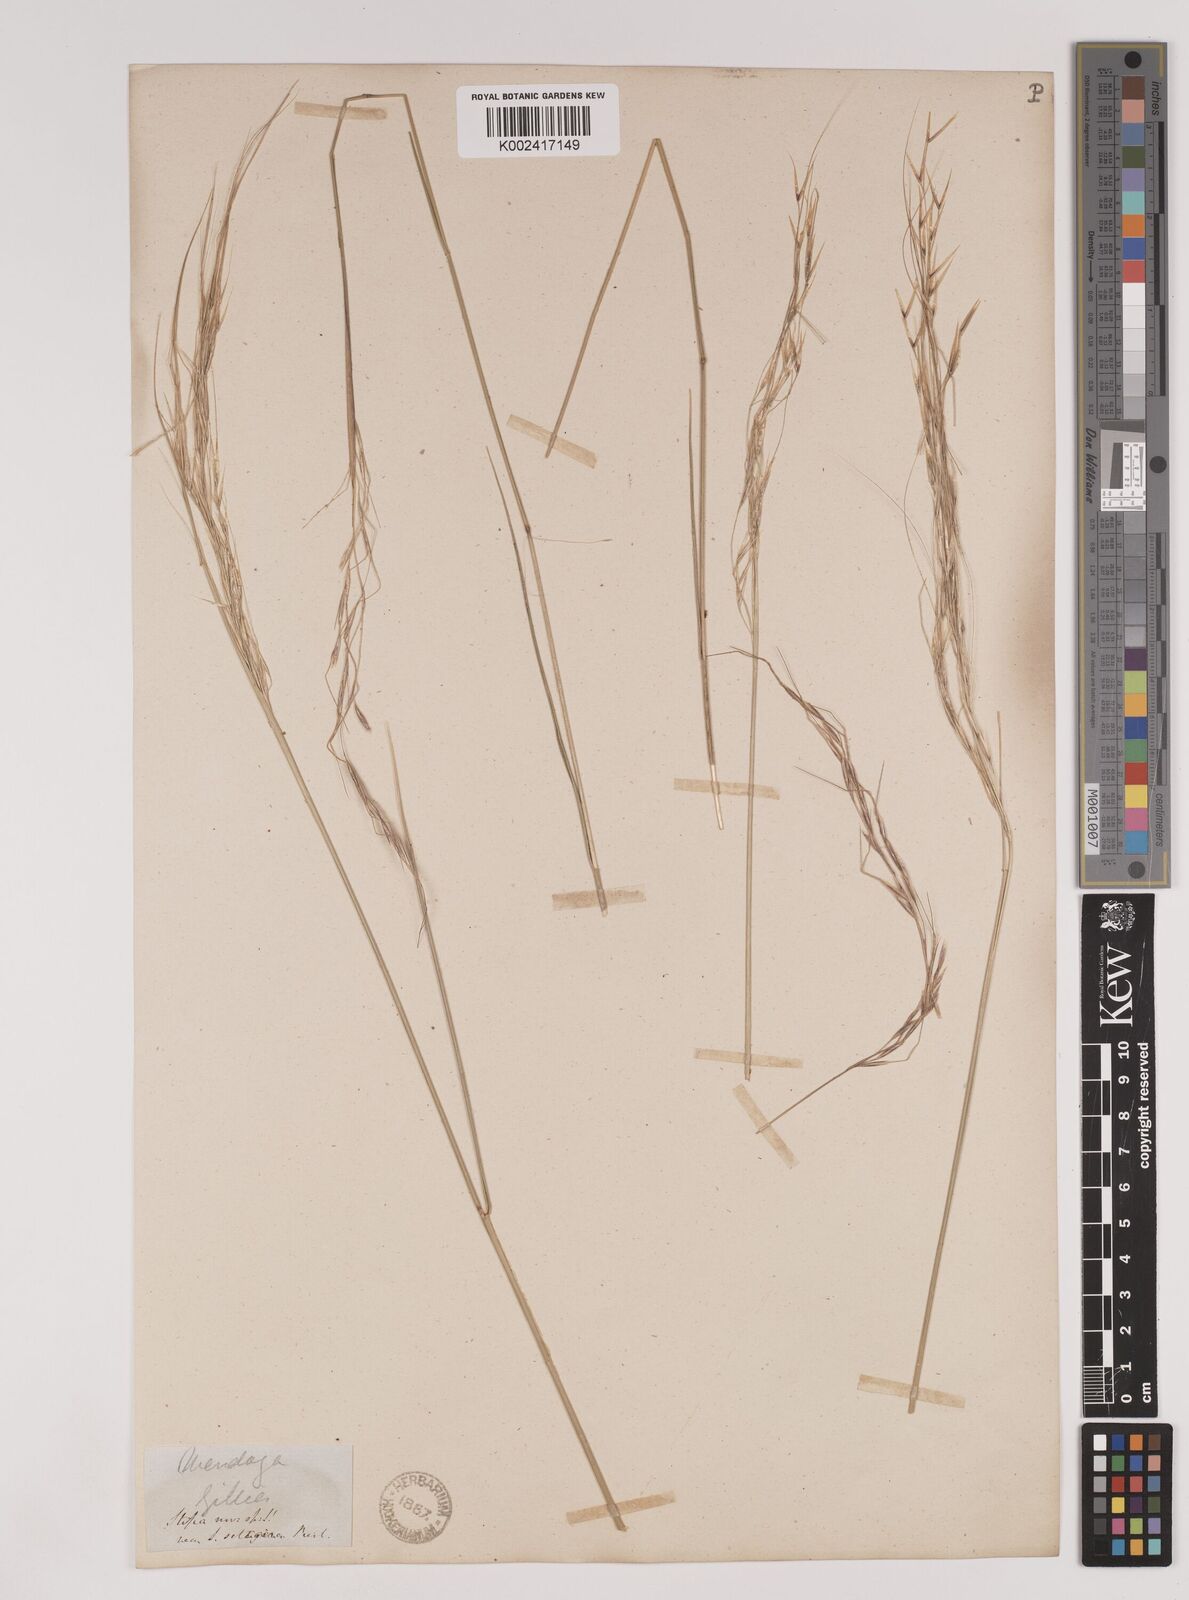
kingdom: Plantae
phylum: Tracheophyta
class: Liliopsida
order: Poales
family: Poaceae
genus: Stipa
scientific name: Stipa
